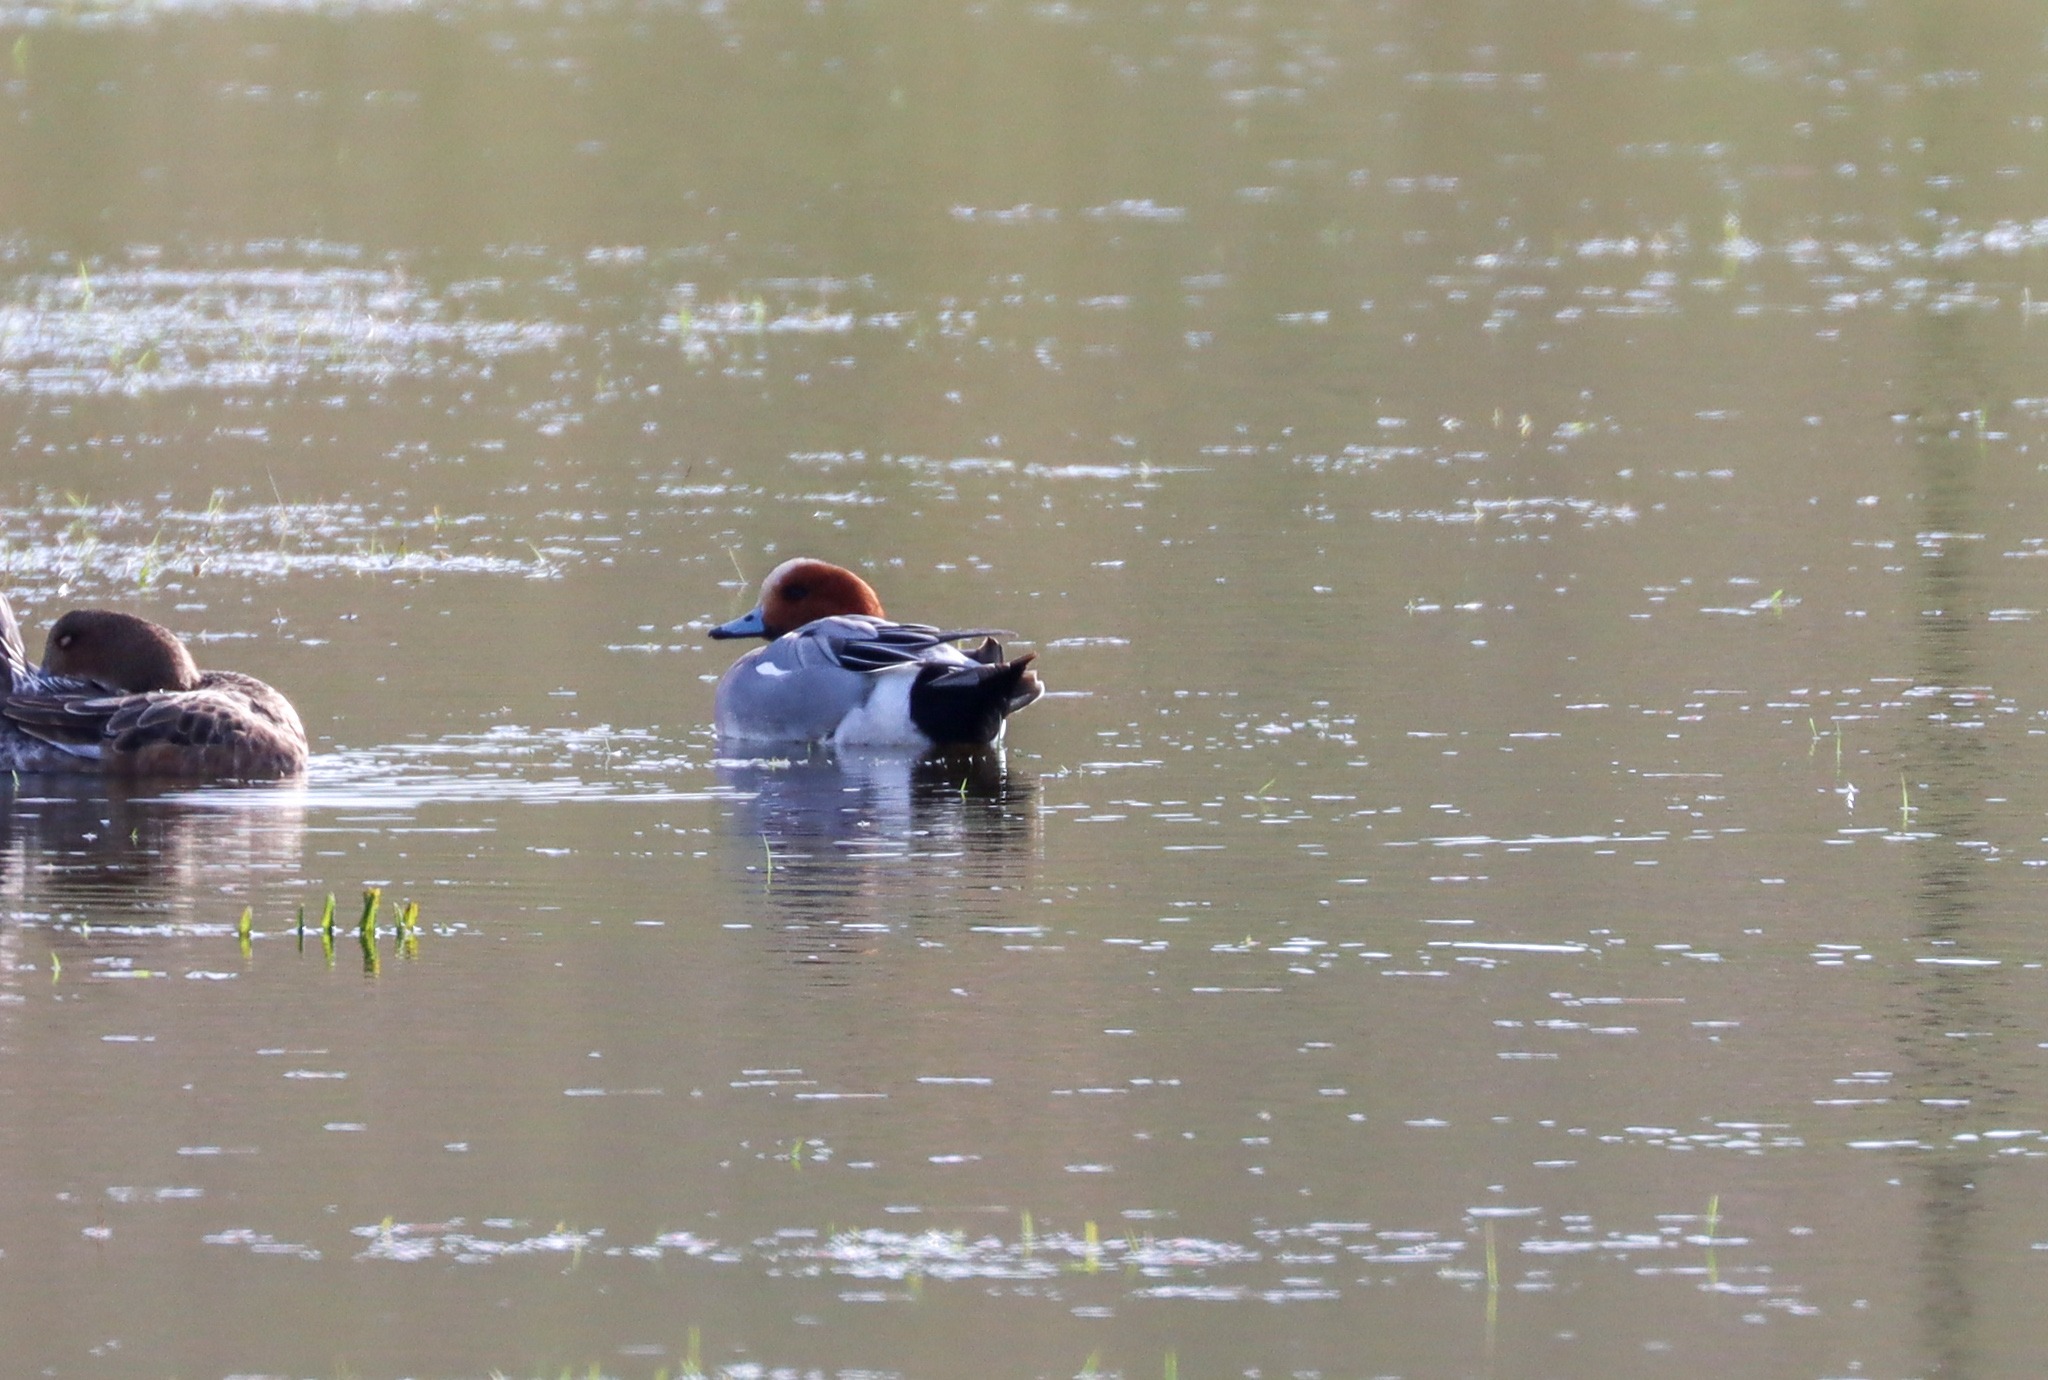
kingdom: Animalia
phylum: Chordata
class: Aves
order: Anseriformes
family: Anatidae
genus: Mareca
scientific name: Mareca penelope
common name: Pibeand
